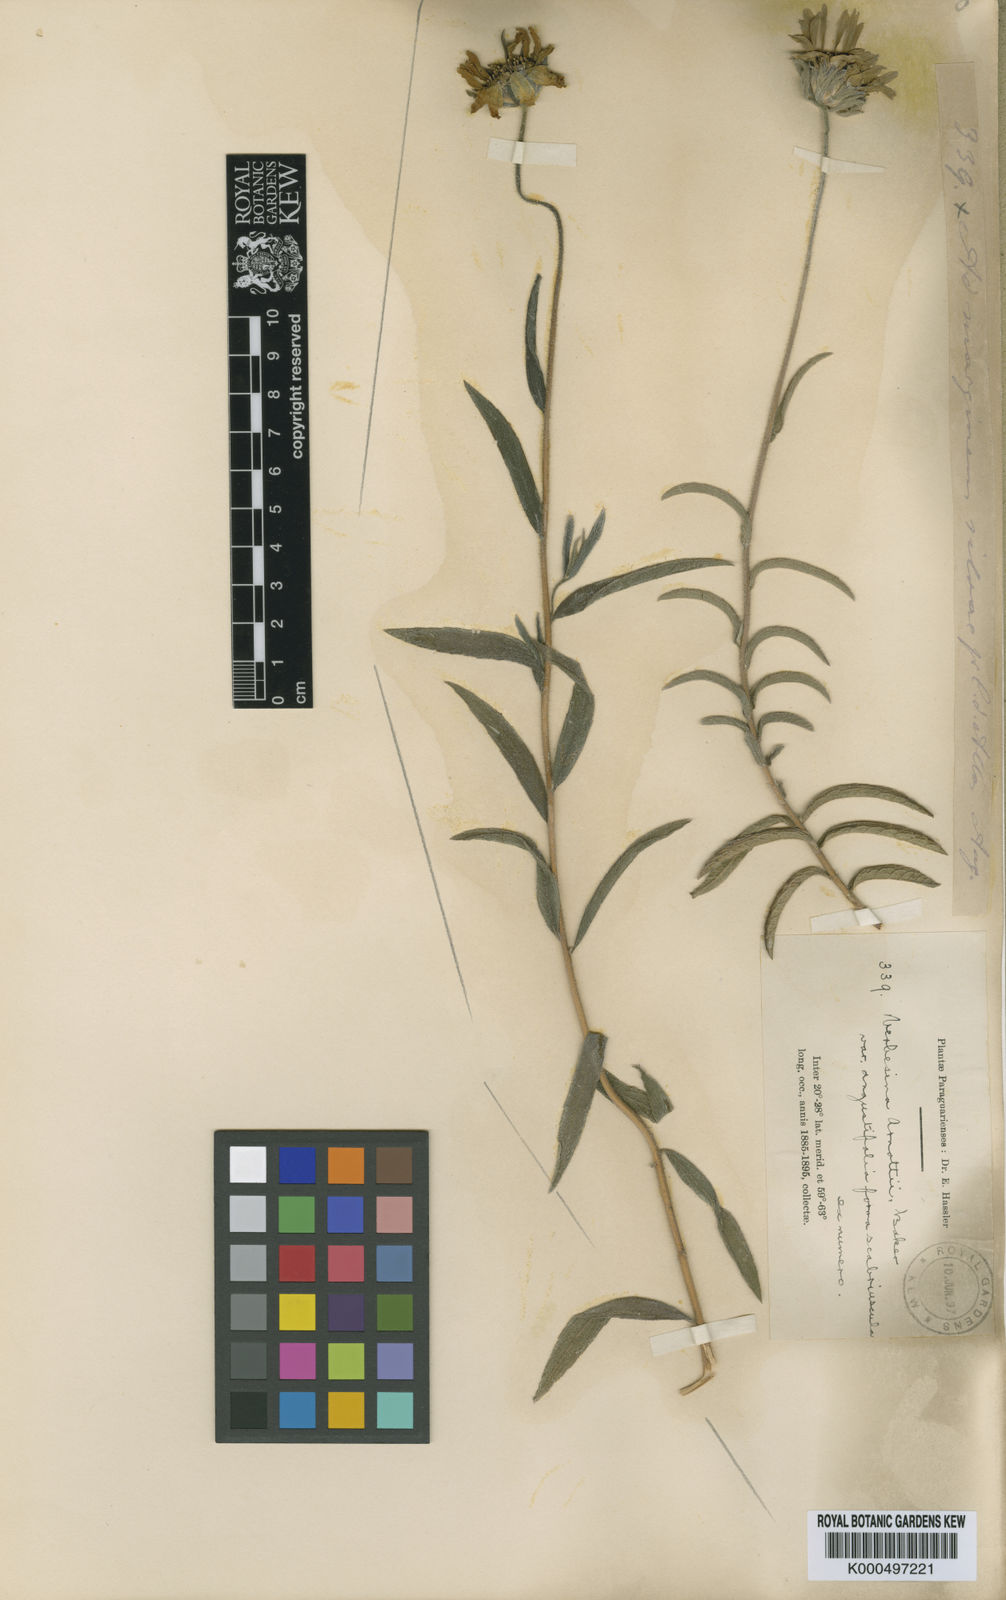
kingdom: Plantae
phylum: Tracheophyta
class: Magnoliopsida
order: Asterales
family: Asteraceae
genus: Dimerostemma
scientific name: Dimerostemma arnottii
